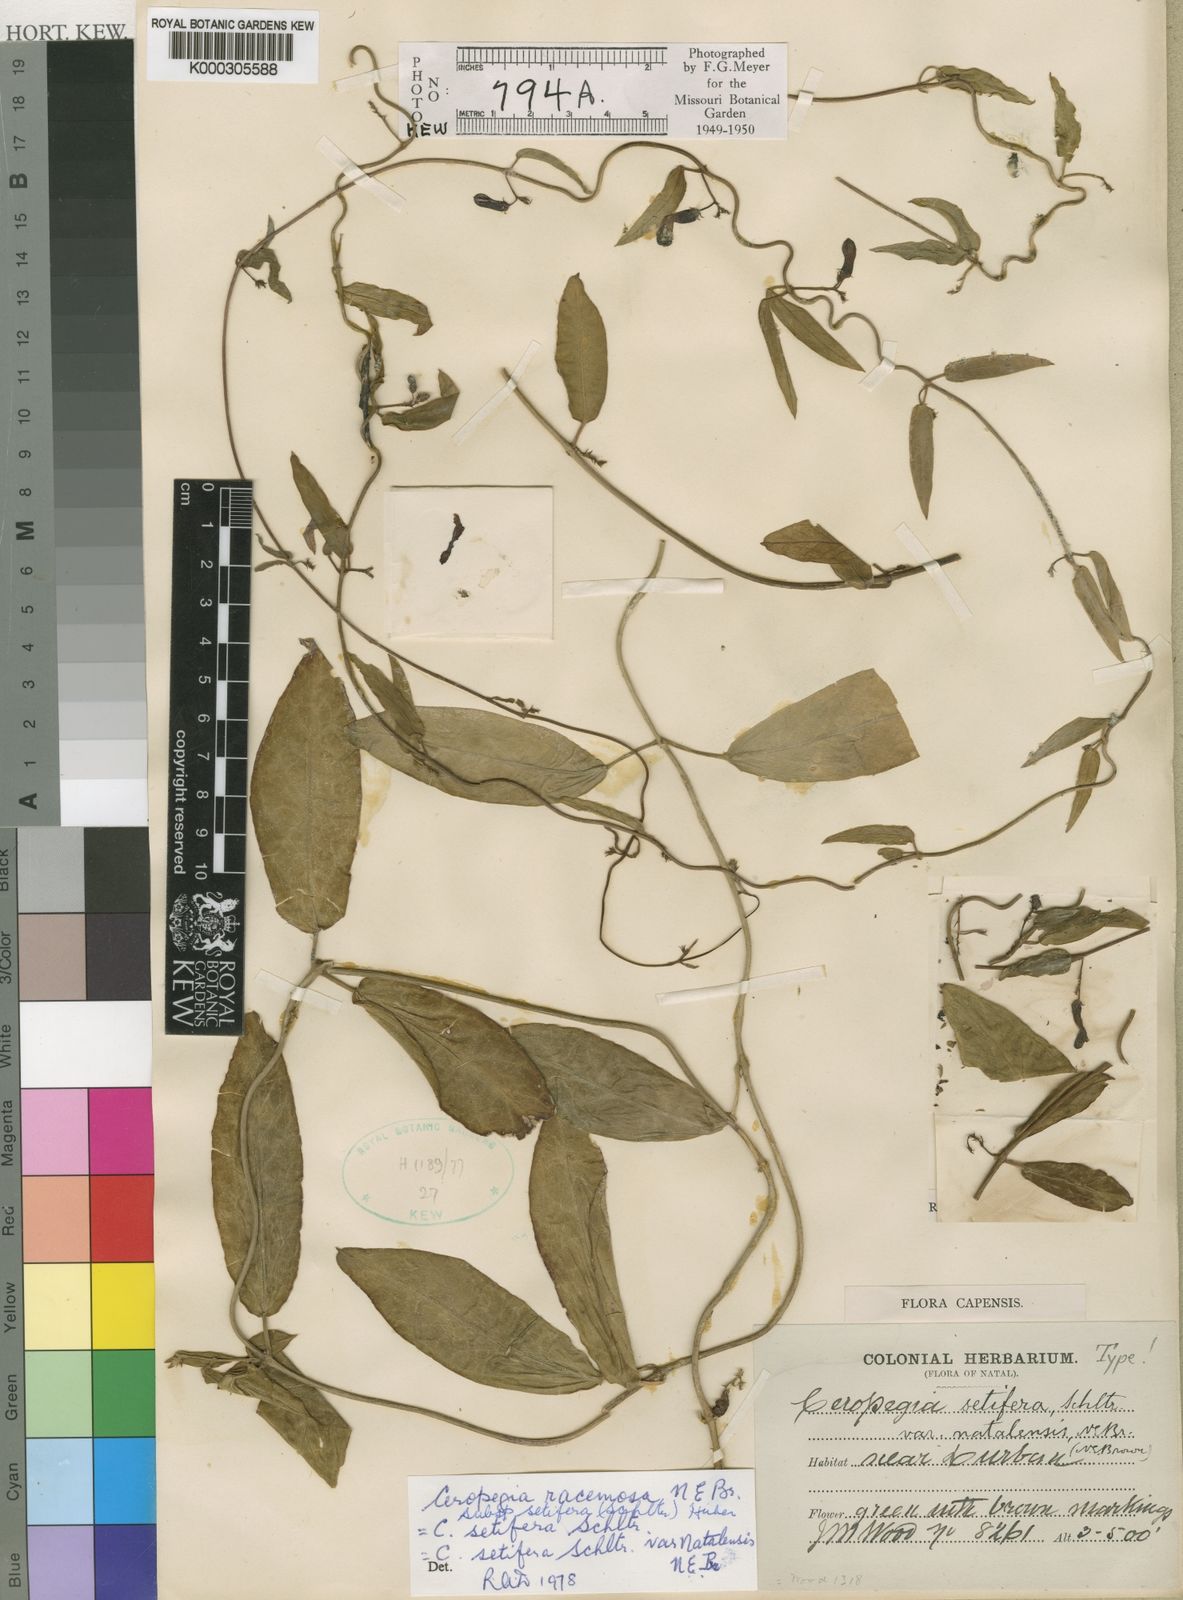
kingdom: Plantae
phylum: Tracheophyta
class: Magnoliopsida
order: Gentianales
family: Apocynaceae
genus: Ceropegia
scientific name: Ceropegia racemosa
